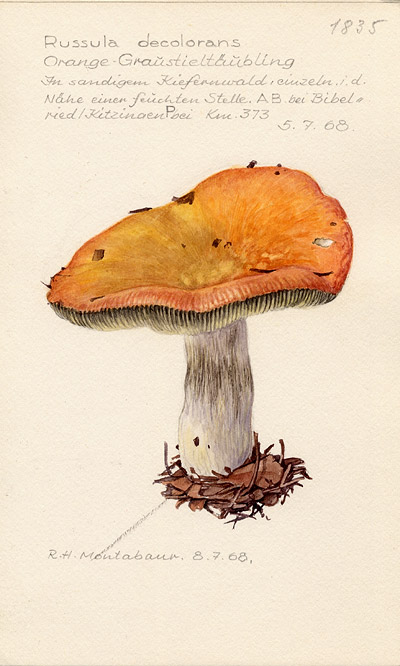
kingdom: Fungi
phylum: Basidiomycota
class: Agaricomycetes
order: Russulales
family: Russulaceae
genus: Russula
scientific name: Russula decolorans
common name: Copper brittlegill
